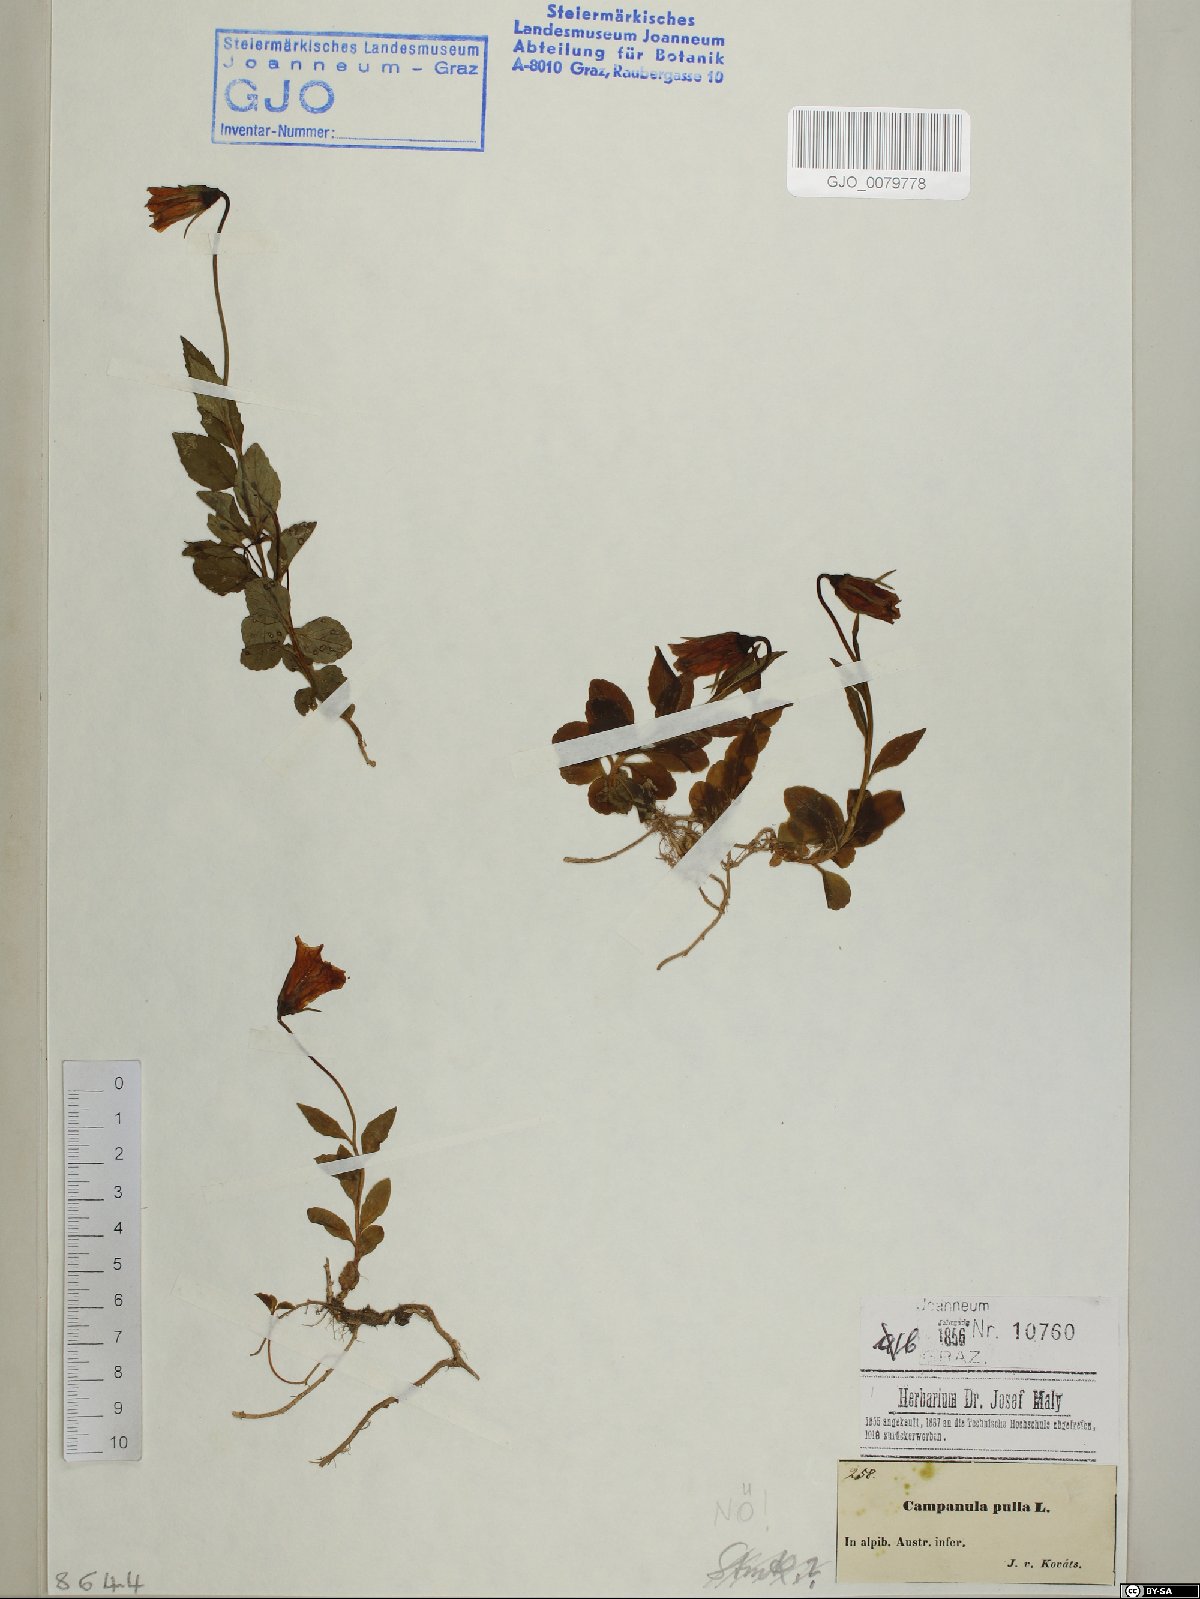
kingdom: Plantae
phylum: Tracheophyta
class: Magnoliopsida
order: Asterales
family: Campanulaceae
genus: Campanula
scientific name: Campanula pulla
